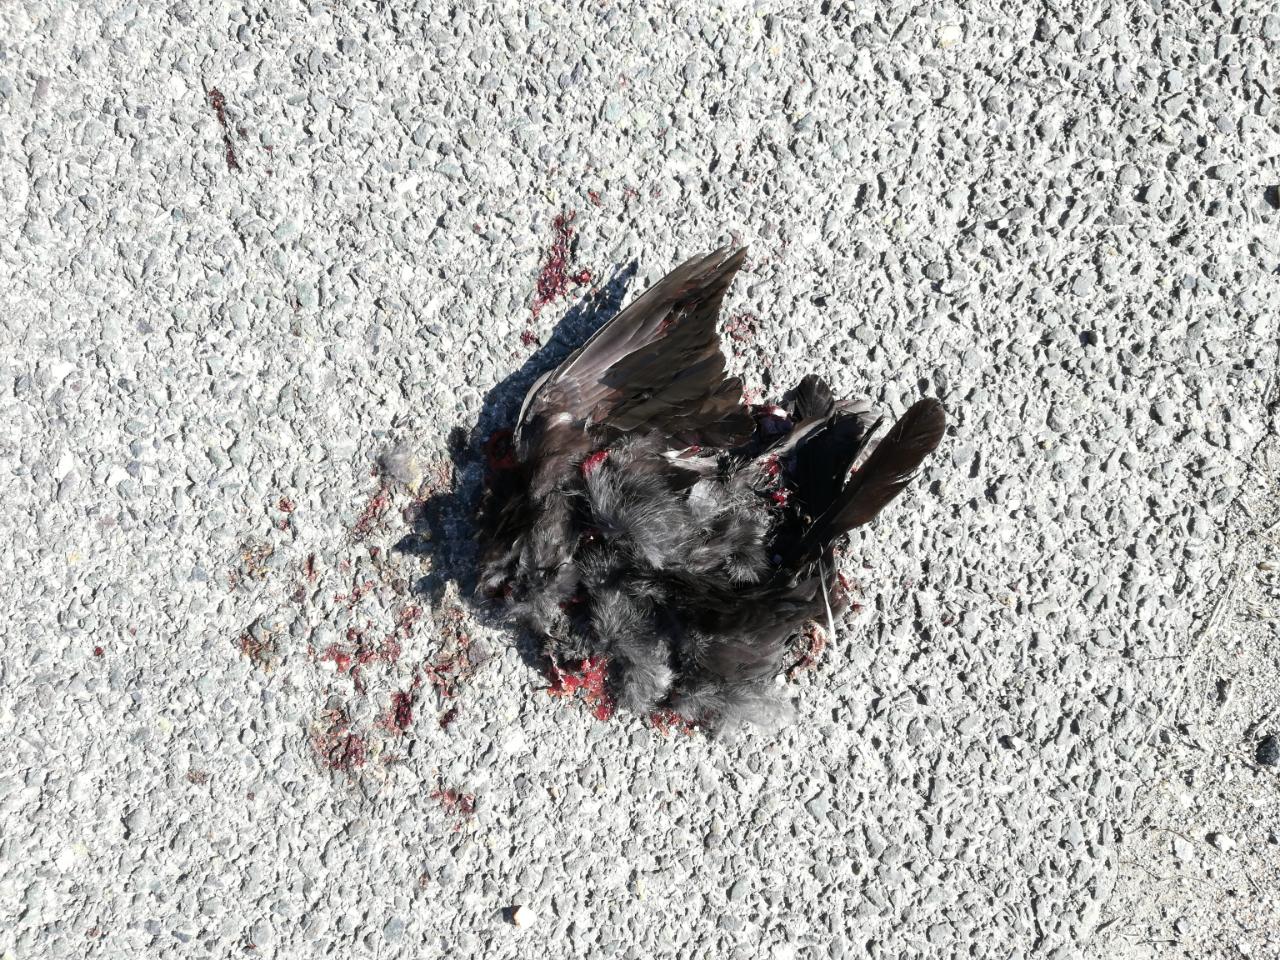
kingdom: Animalia
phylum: Chordata
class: Aves
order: Passeriformes
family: Turdidae
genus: Turdus
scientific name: Turdus merula
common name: Common blackbird
